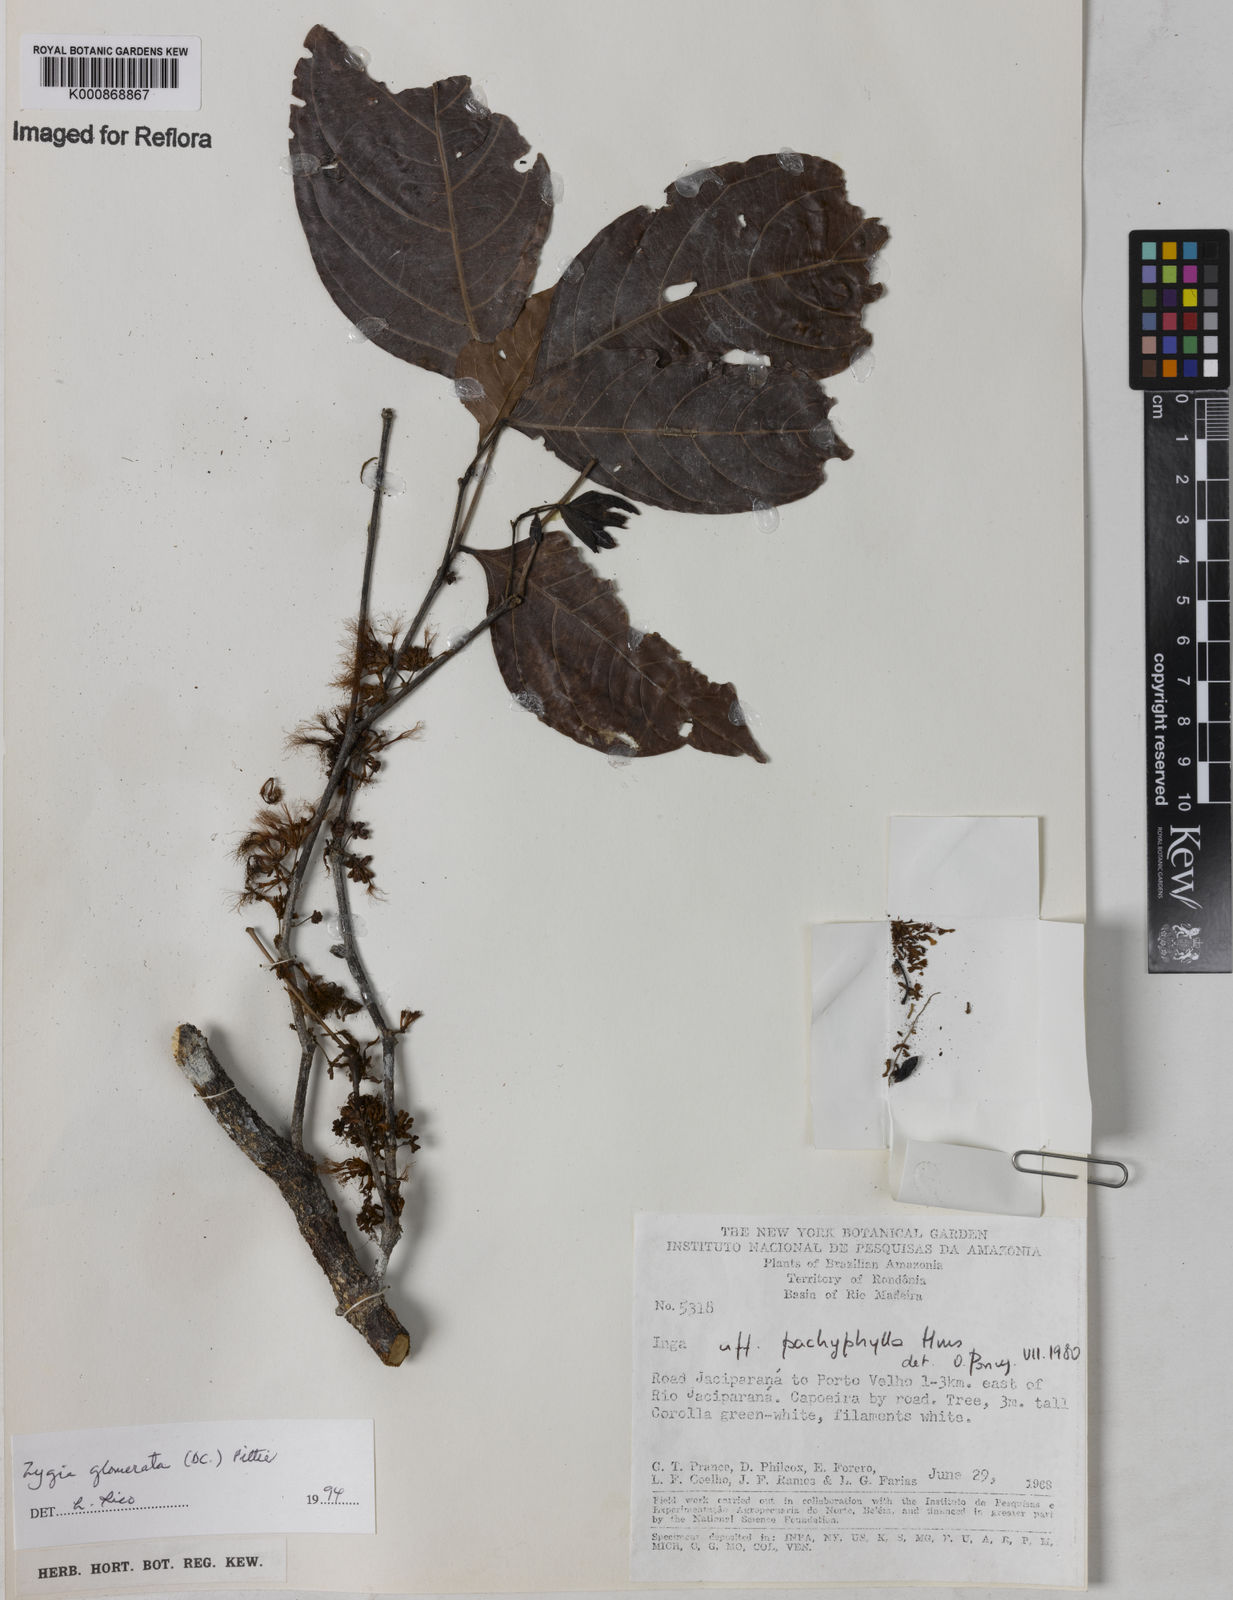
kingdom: Plantae
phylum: Tracheophyta
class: Magnoliopsida
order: Fabales
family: Fabaceae
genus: Zygia
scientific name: Zygia cataractae
